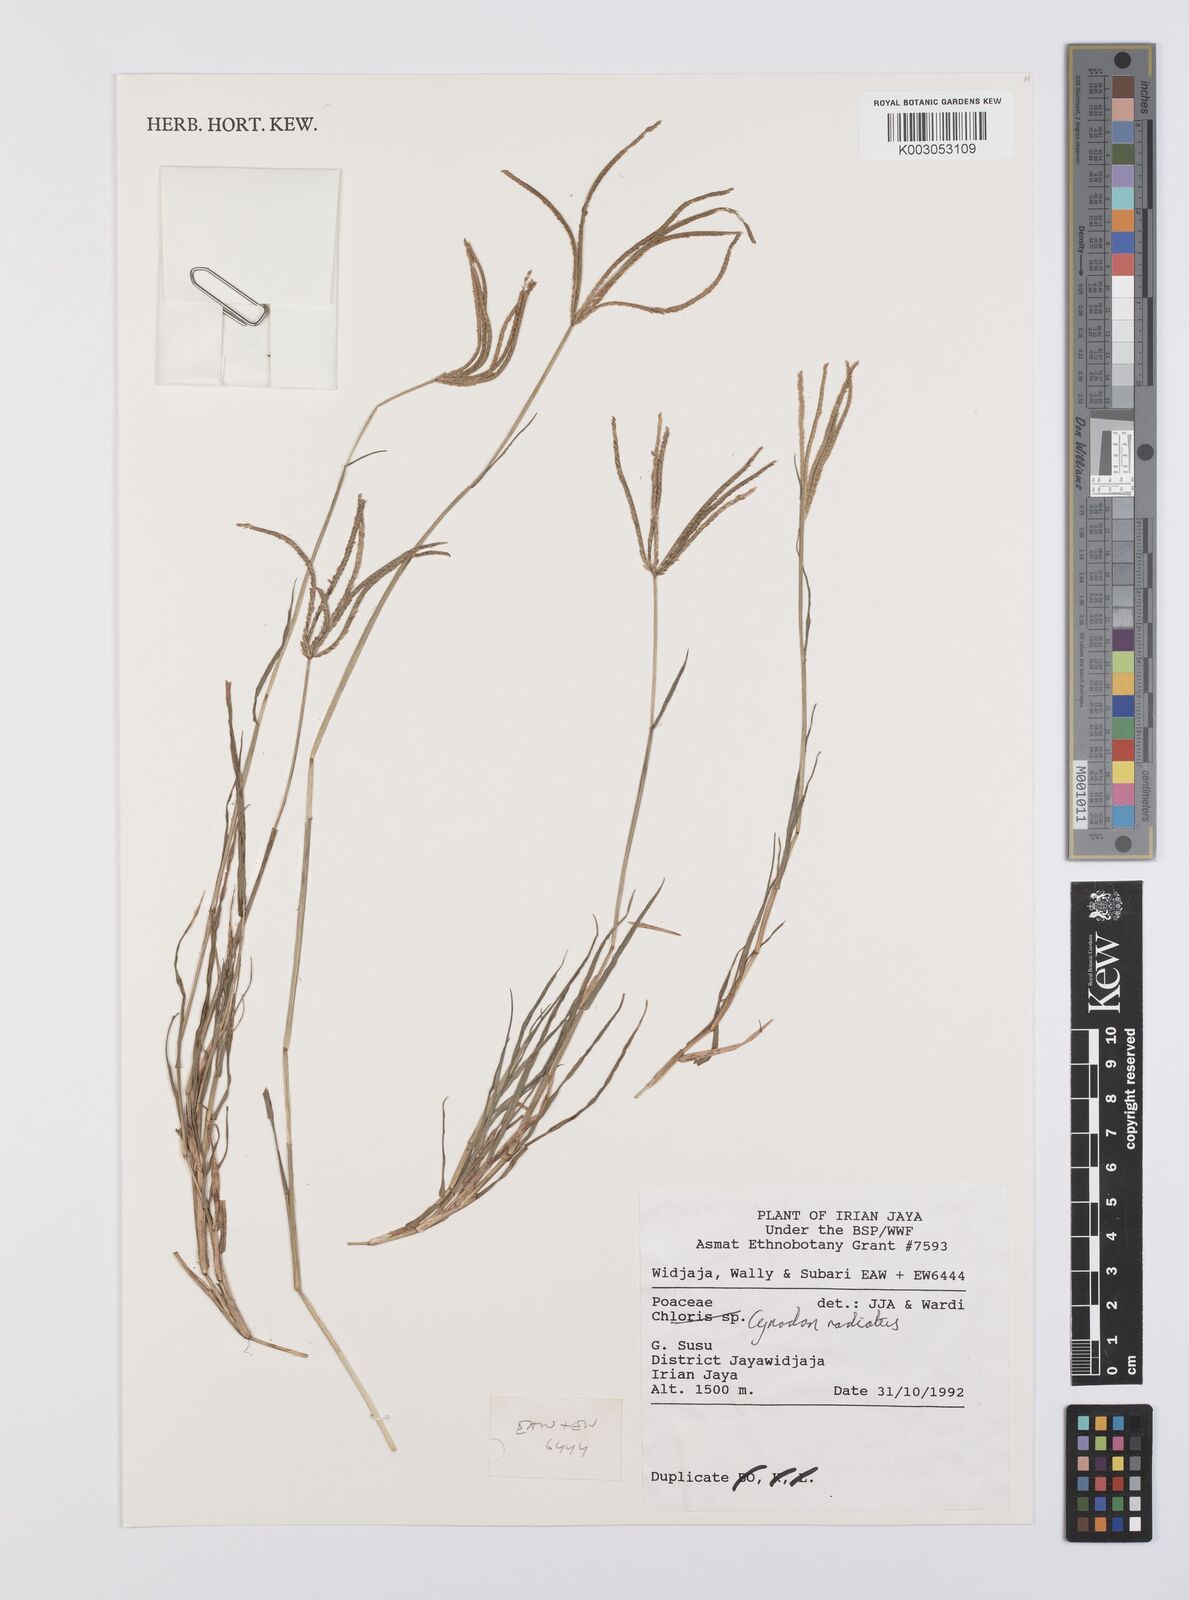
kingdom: Plantae
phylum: Tracheophyta
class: Liliopsida
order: Poales
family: Poaceae
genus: Cynodon
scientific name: Cynodon radiatus
